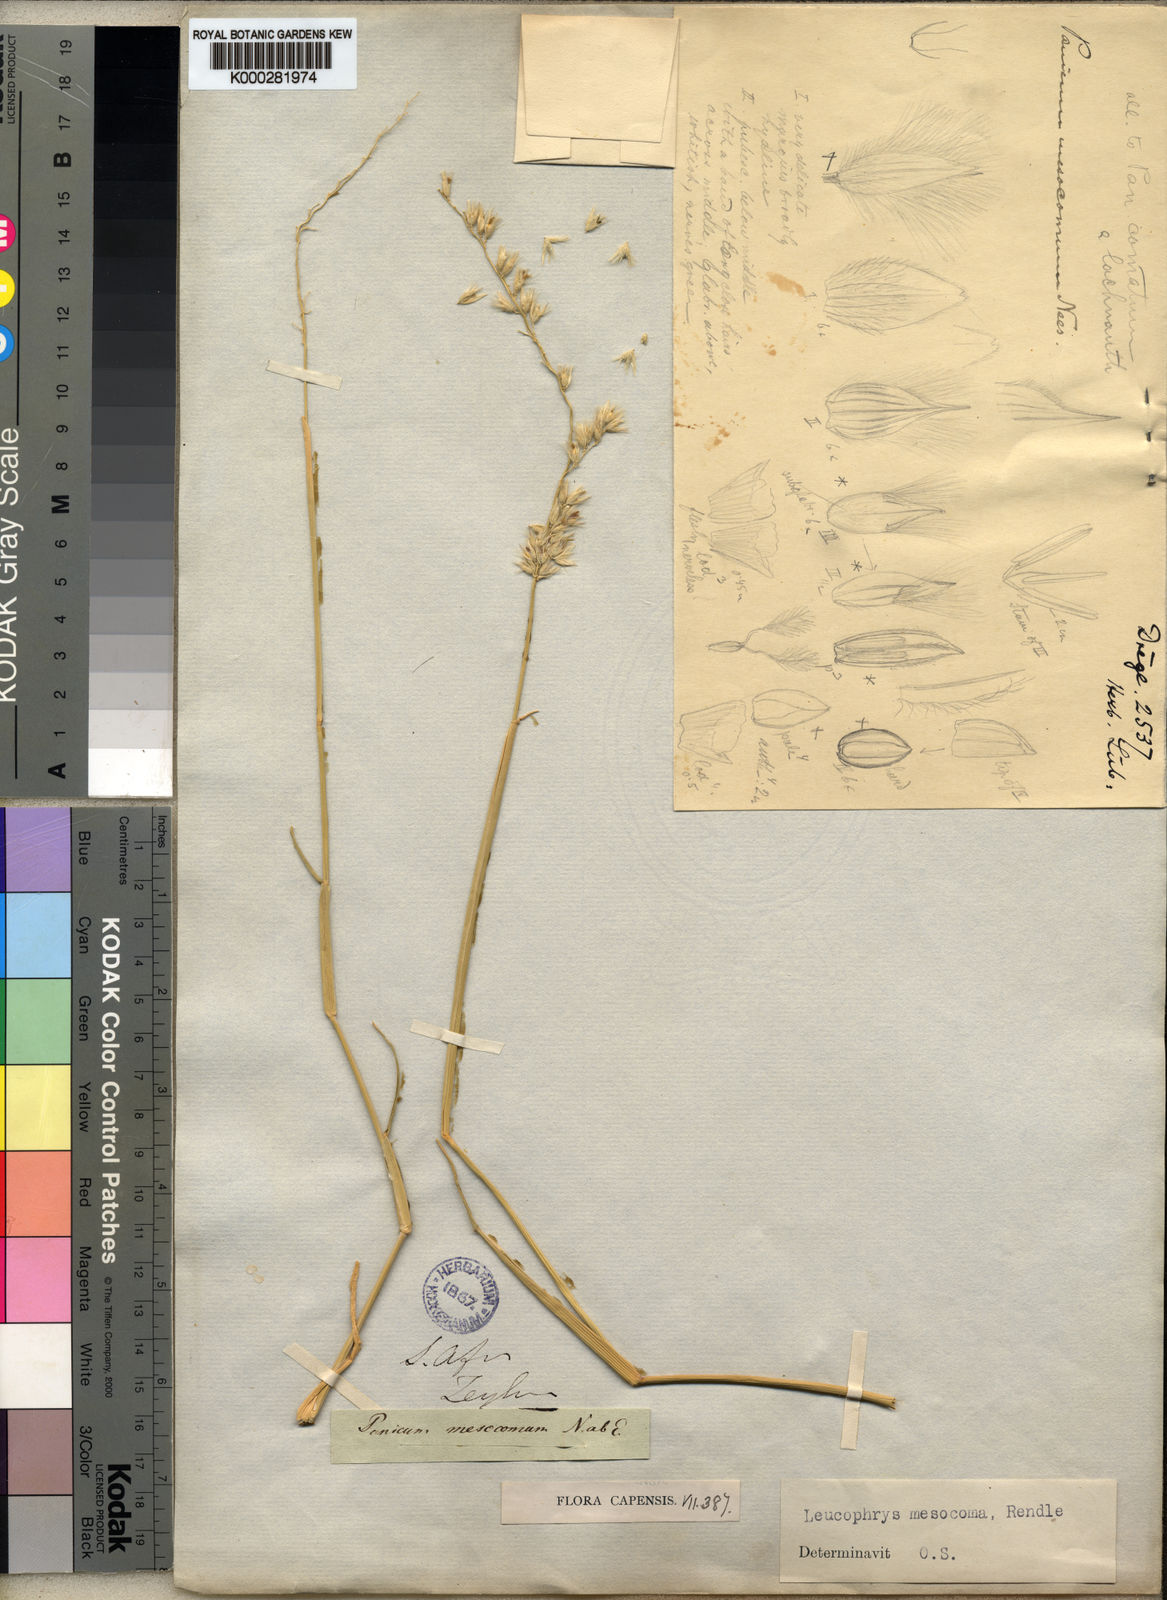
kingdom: Plantae
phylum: Tracheophyta
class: Liliopsida
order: Poales
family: Poaceae
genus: Urochloa
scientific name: Urochloa Brachiaria mesocoma
